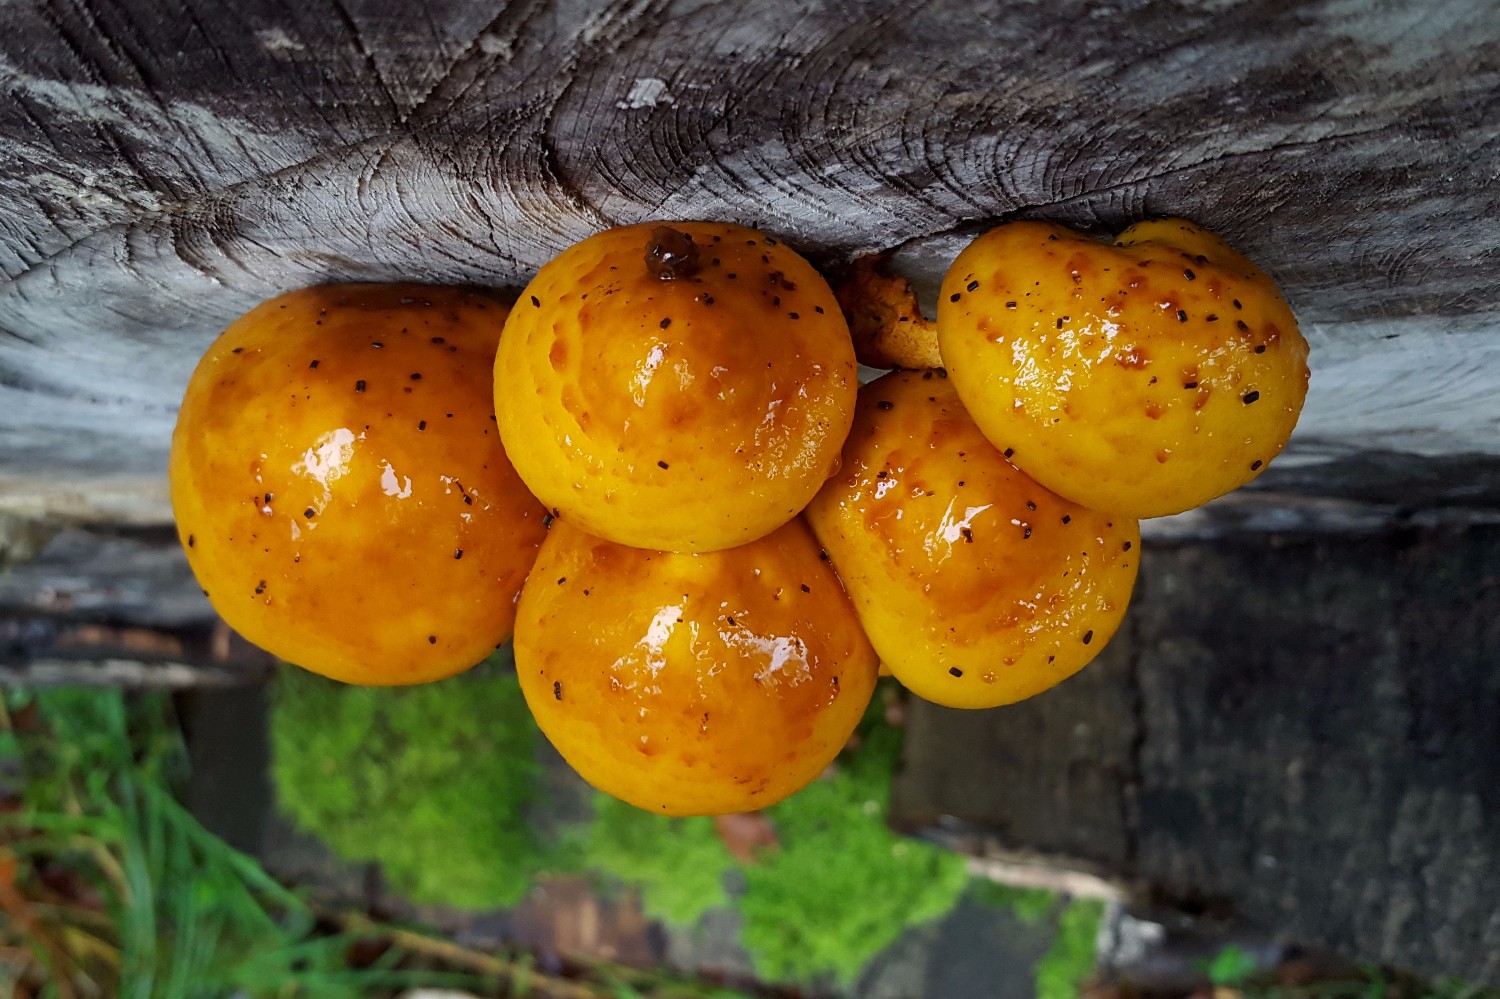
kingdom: Fungi
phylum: Basidiomycota
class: Agaricomycetes
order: Agaricales
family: Strophariaceae
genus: Pholiota
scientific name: Pholiota adiposa
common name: højtsiddende skælhat
